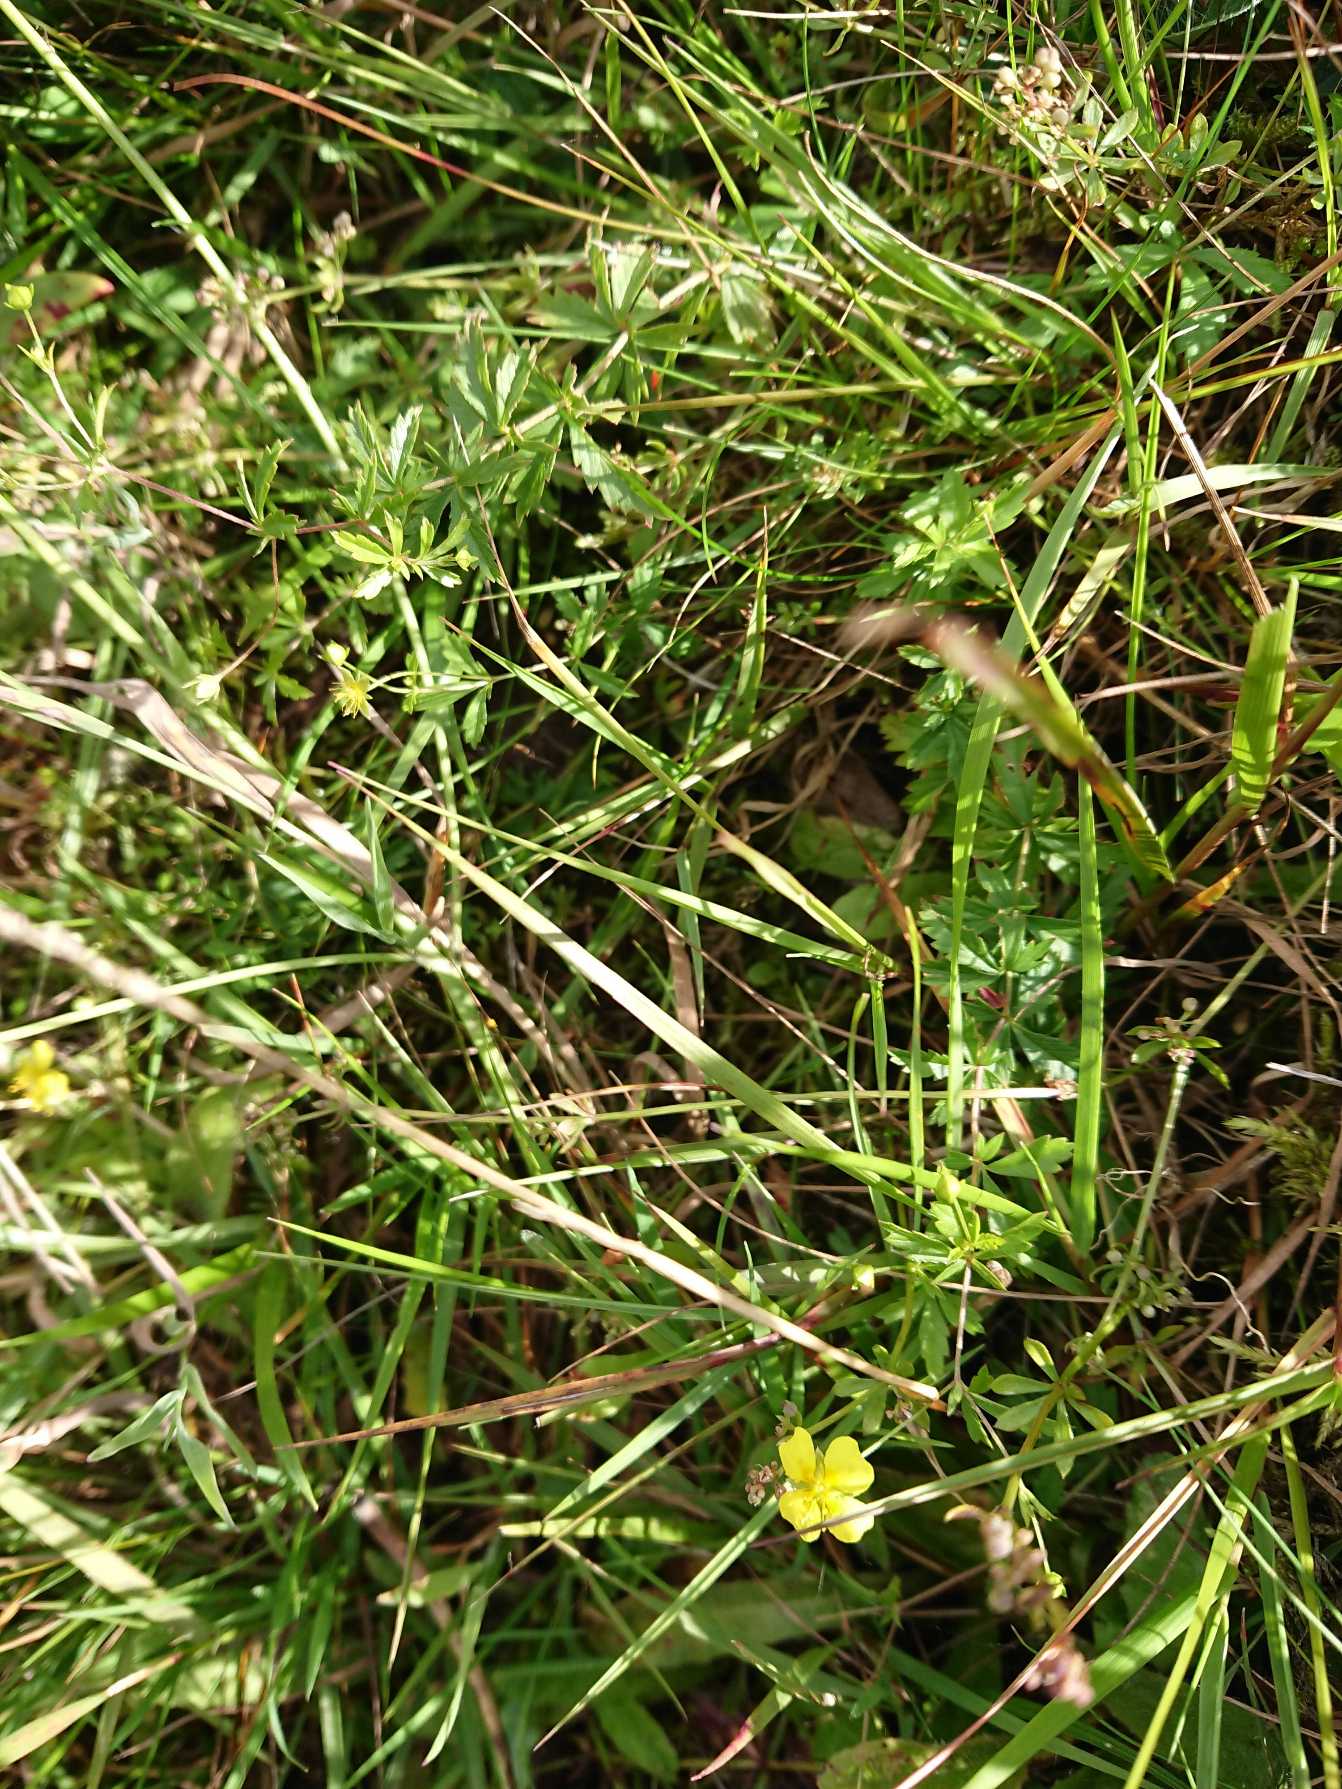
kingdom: Plantae
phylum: Tracheophyta
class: Magnoliopsida
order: Rosales
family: Rosaceae
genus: Potentilla
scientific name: Potentilla erecta
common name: Tormentil
